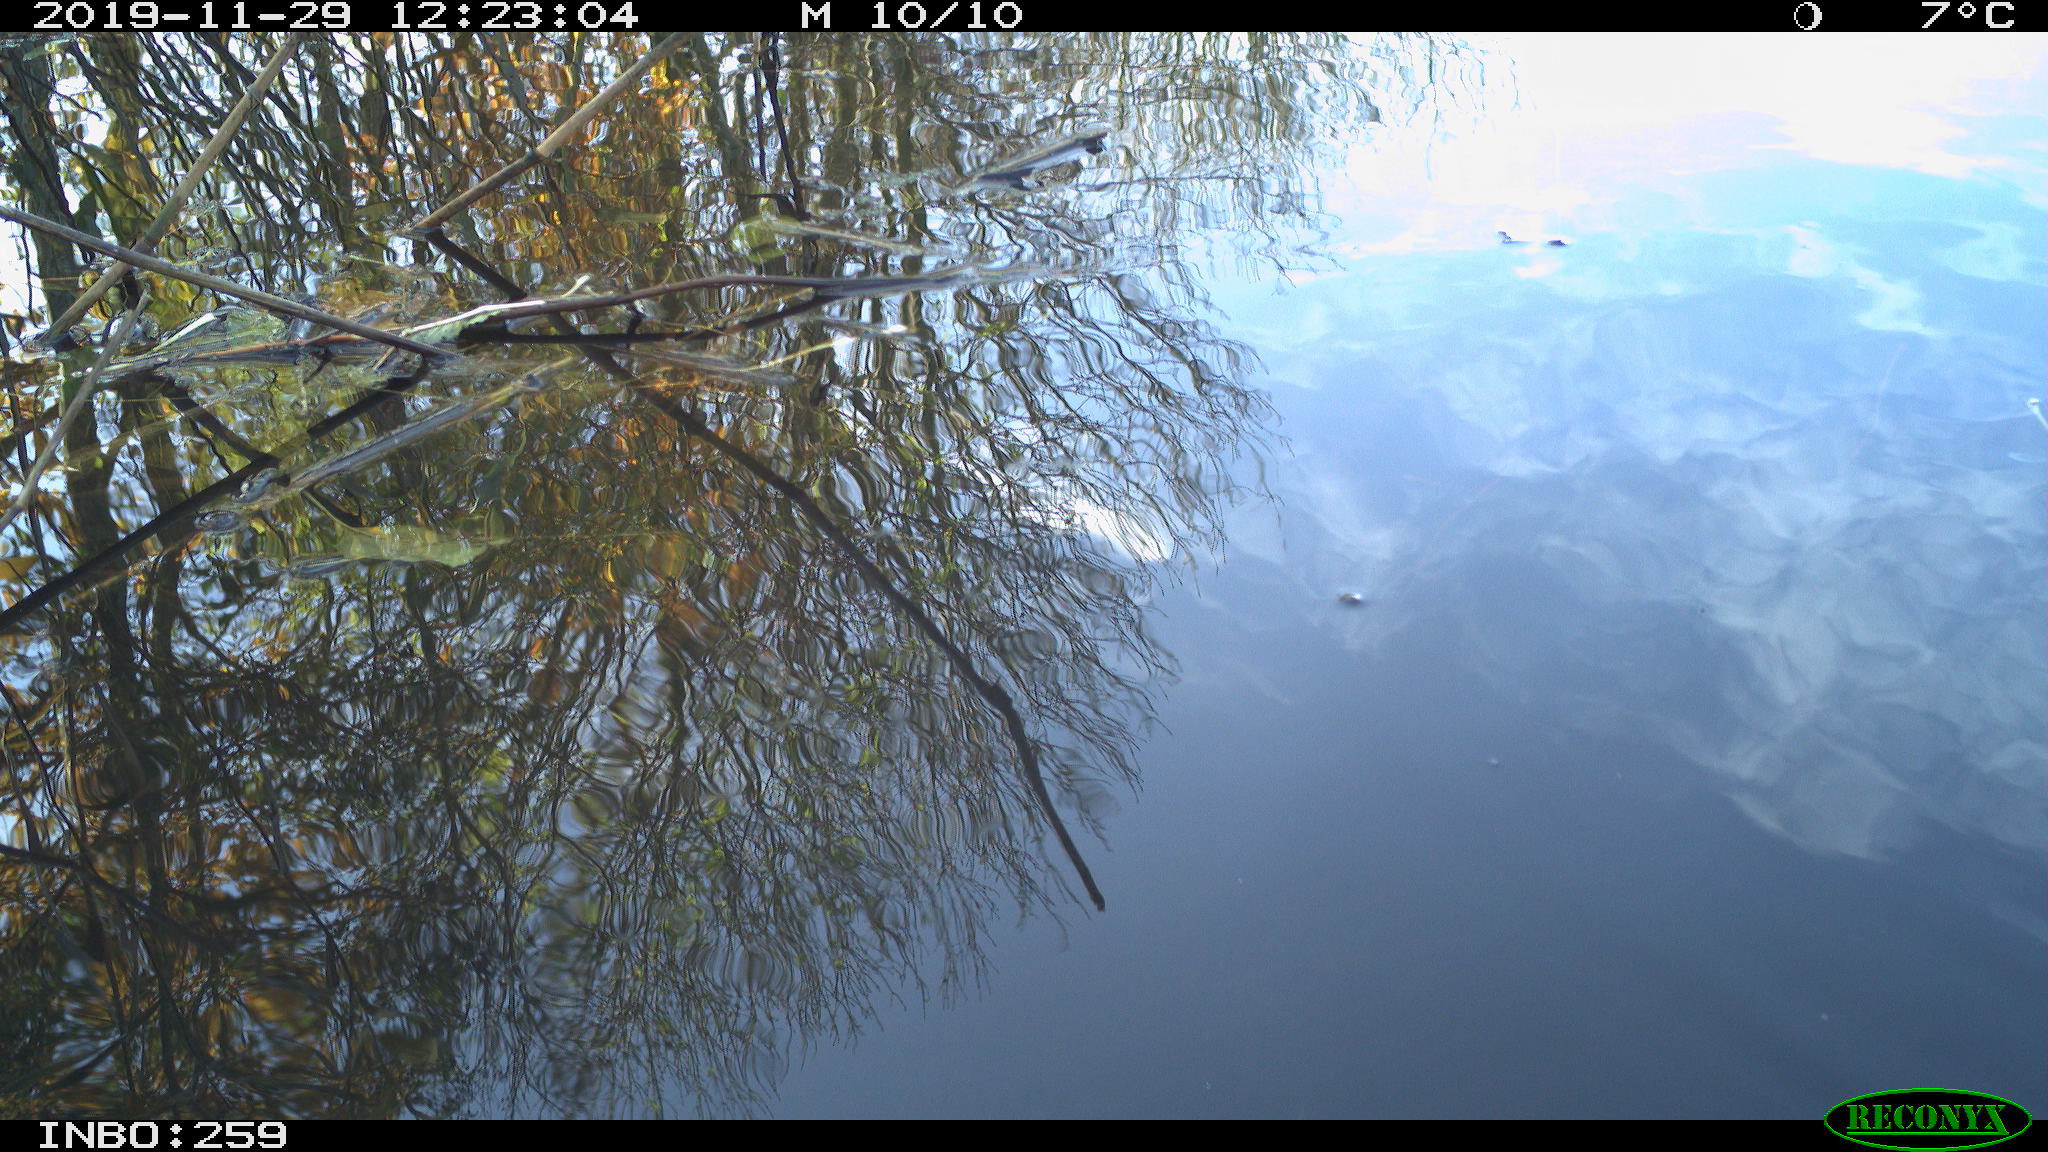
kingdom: Animalia
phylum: Chordata
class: Aves
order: Gruiformes
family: Rallidae
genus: Gallinula
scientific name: Gallinula chloropus
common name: Common moorhen
